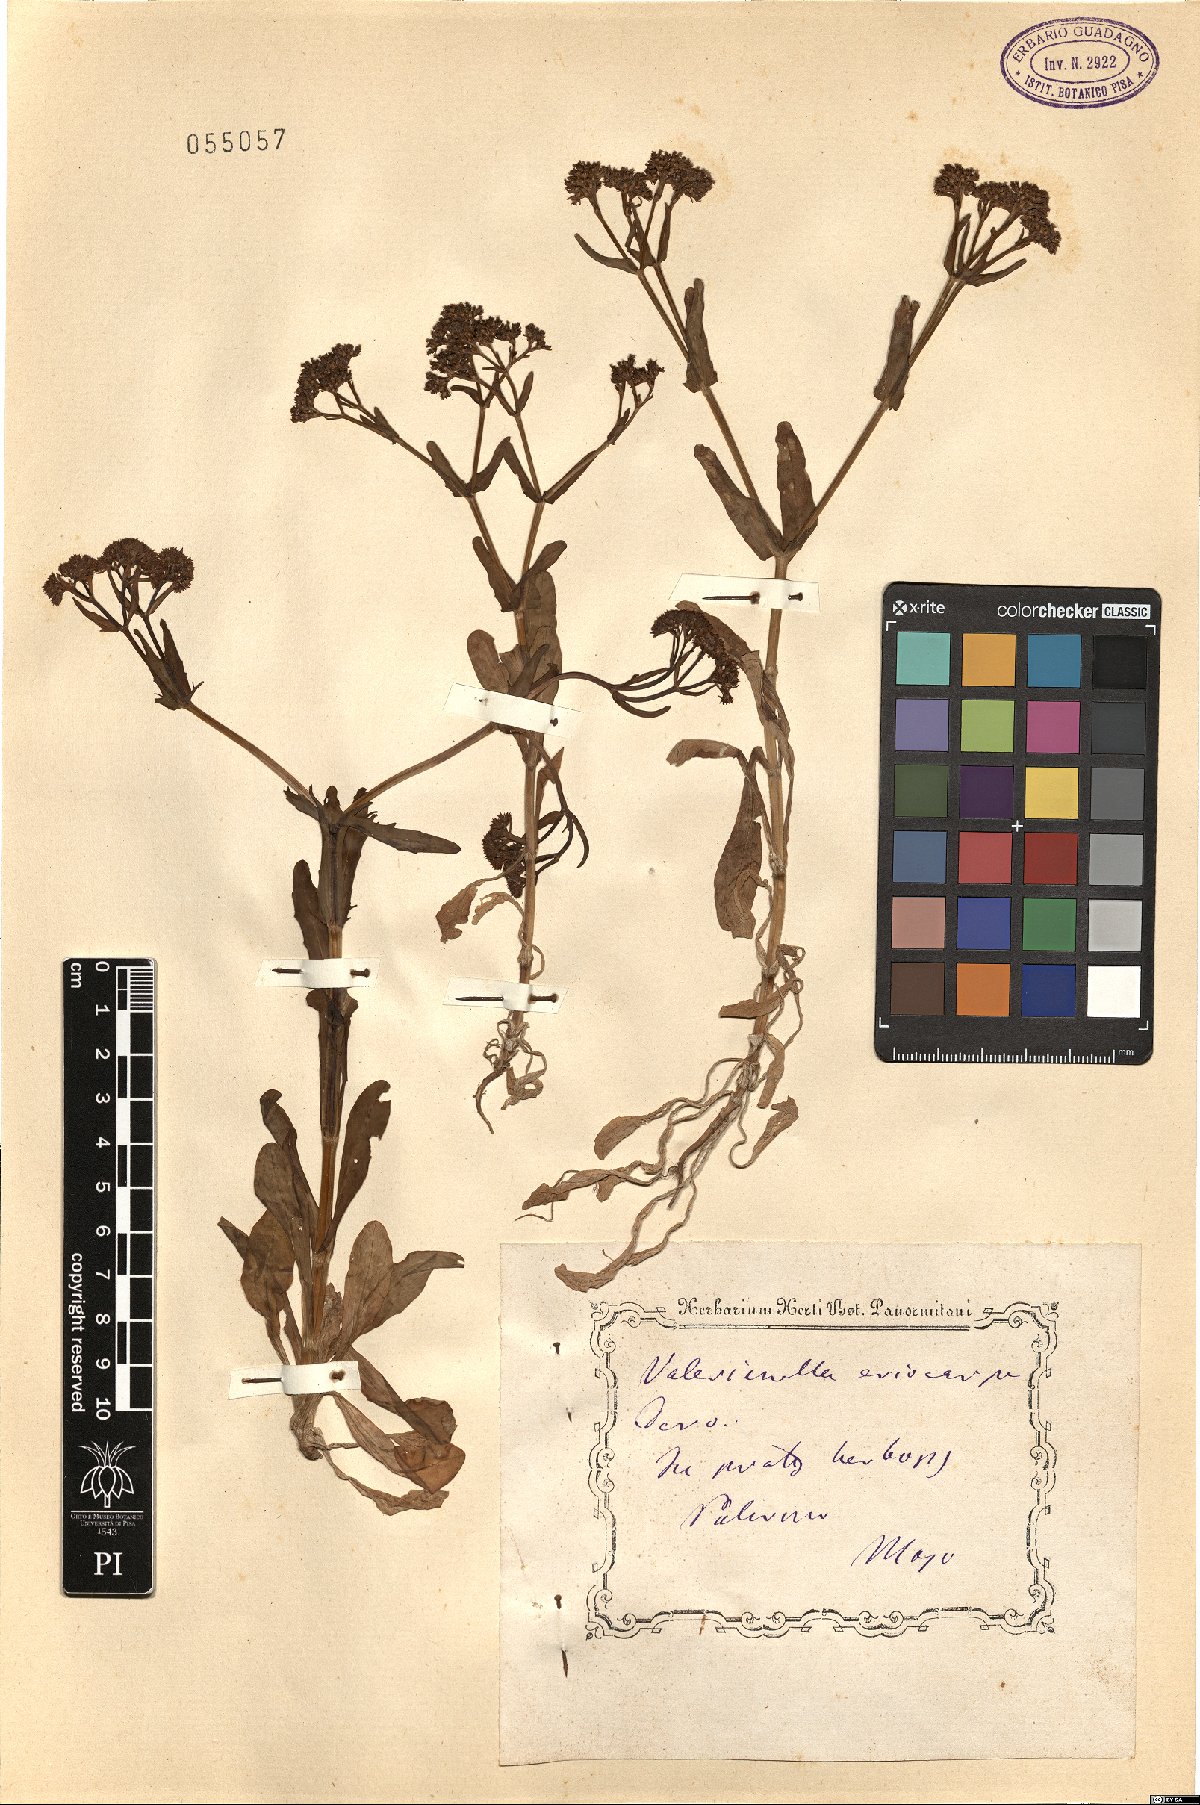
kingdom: Plantae
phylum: Tracheophyta
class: Magnoliopsida
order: Dipsacales
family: Caprifoliaceae
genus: Valerianella
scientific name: Valerianella eriocarpa
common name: Hairy-fruited cornsalad
